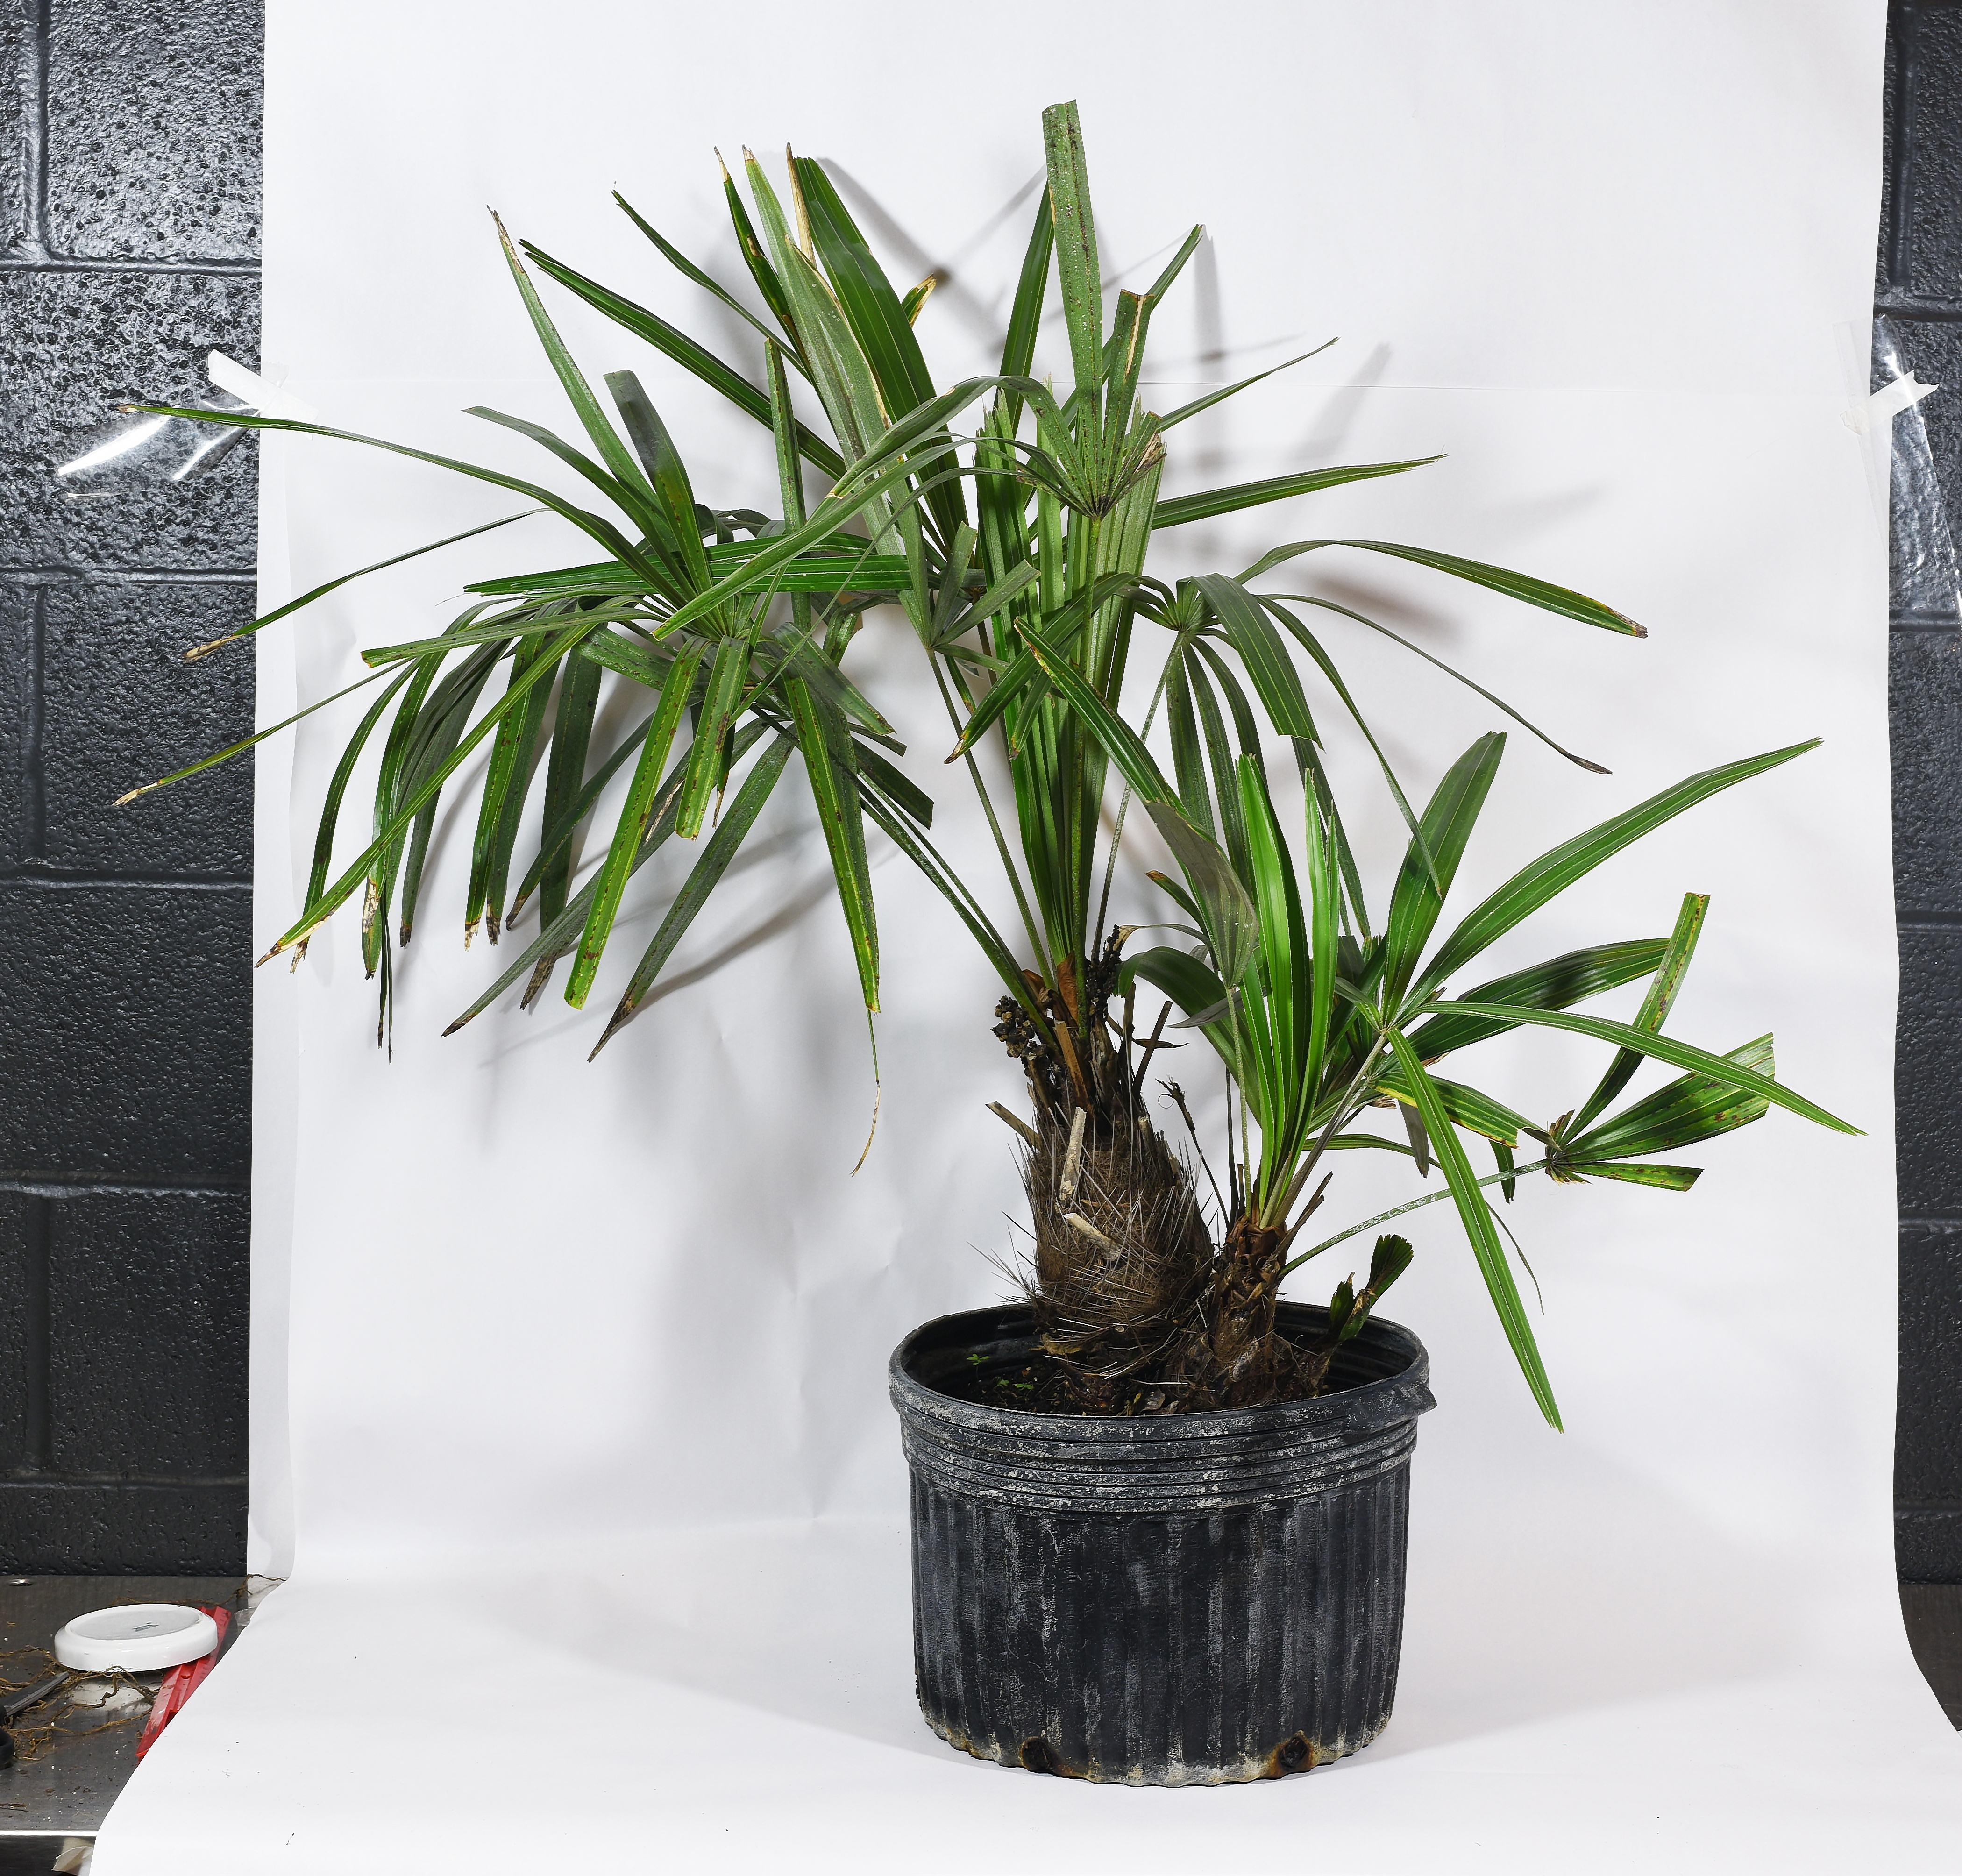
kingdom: Plantae
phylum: Tracheophyta
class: Liliopsida
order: Arecales
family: Arecaceae
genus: Rhapidophyllum
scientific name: Rhapidophyllum hystrix
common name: Needle Palm
